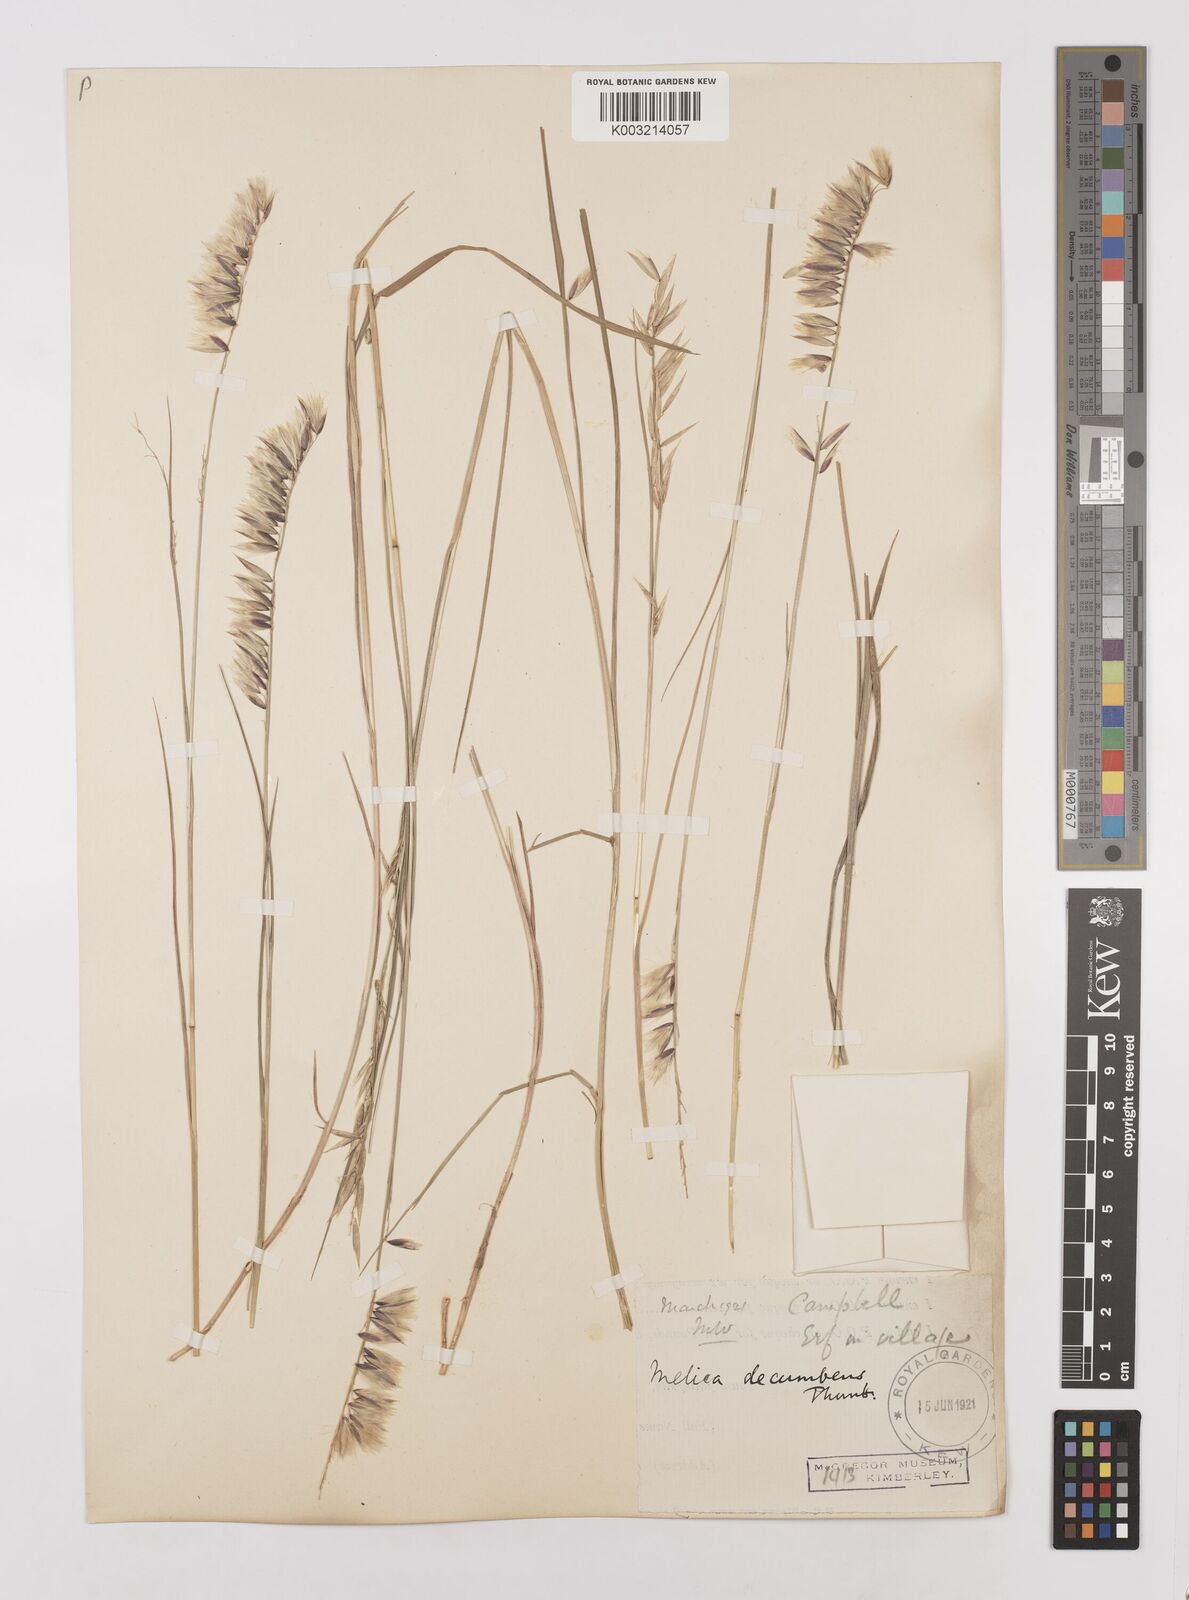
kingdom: Plantae
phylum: Tracheophyta
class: Liliopsida
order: Poales
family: Poaceae
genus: Melica
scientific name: Melica dendroides
